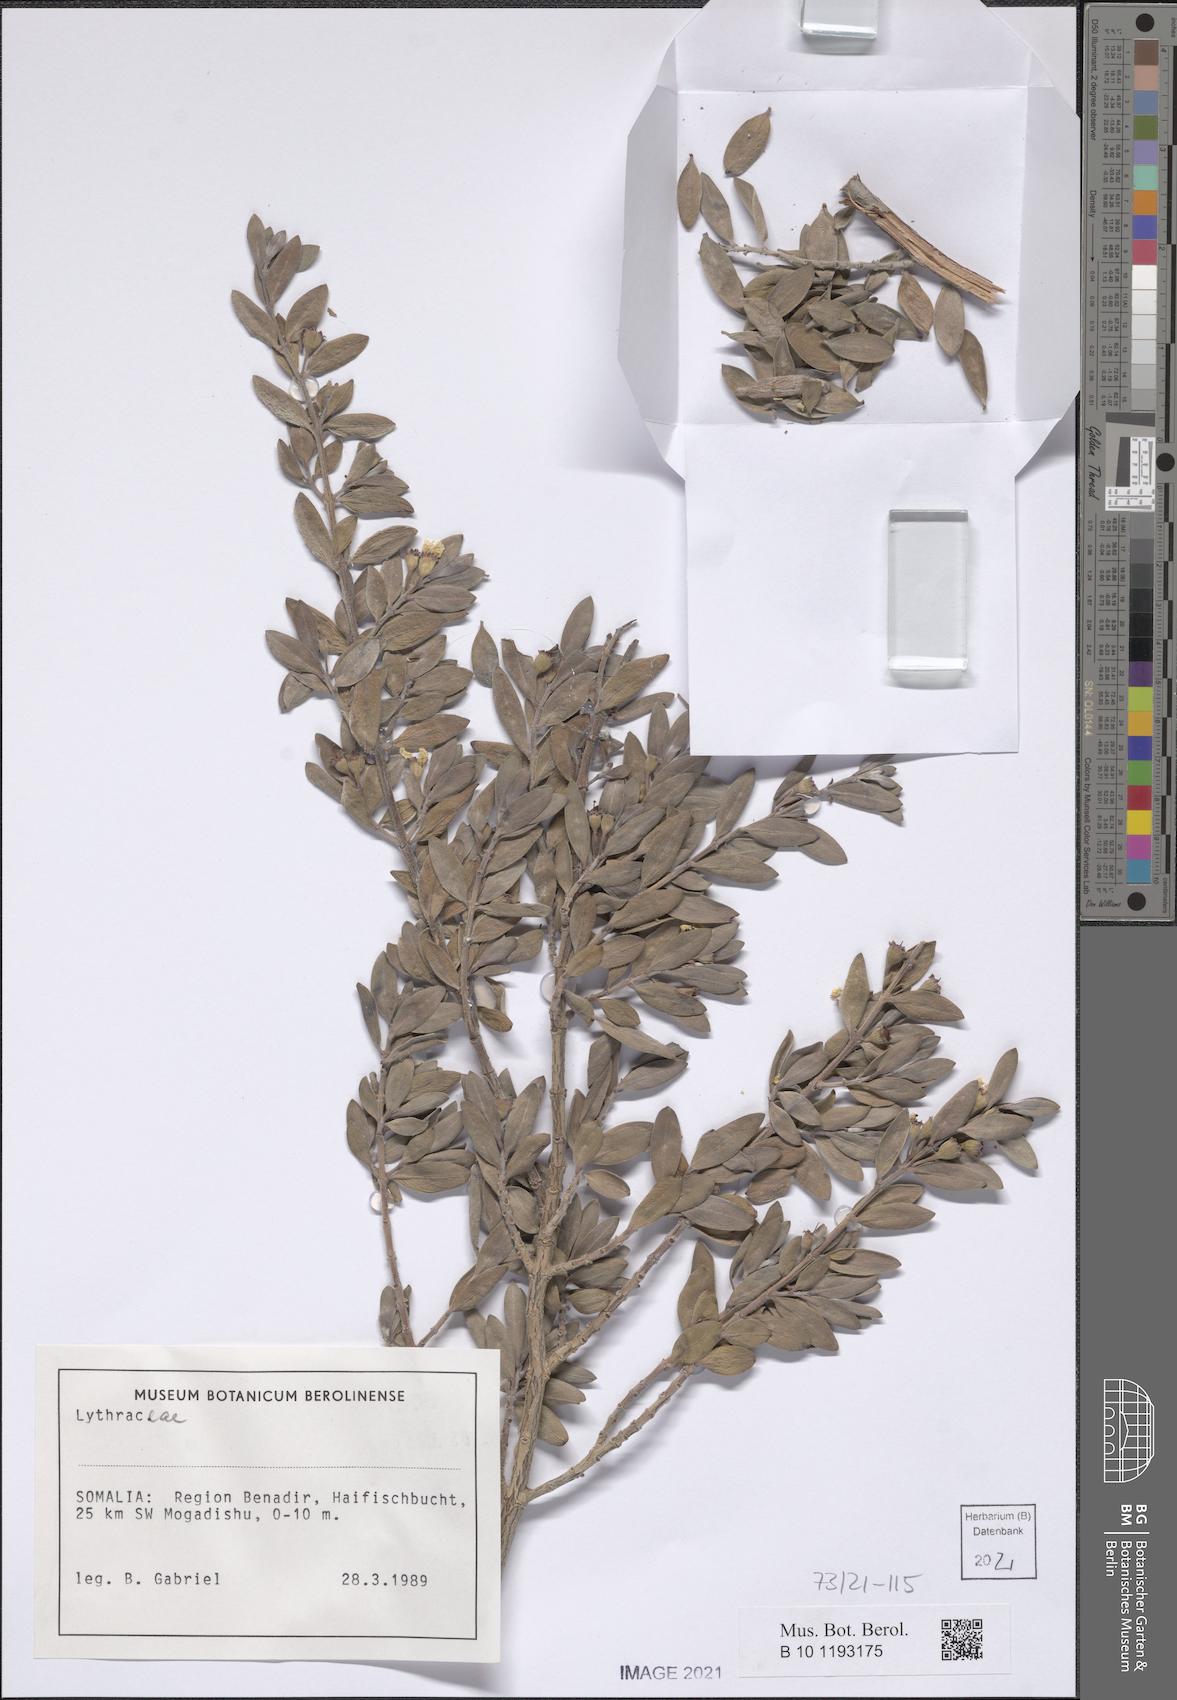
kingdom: Plantae
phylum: Tracheophyta
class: Magnoliopsida
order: Myrtales
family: Lythraceae
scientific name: Lythraceae
